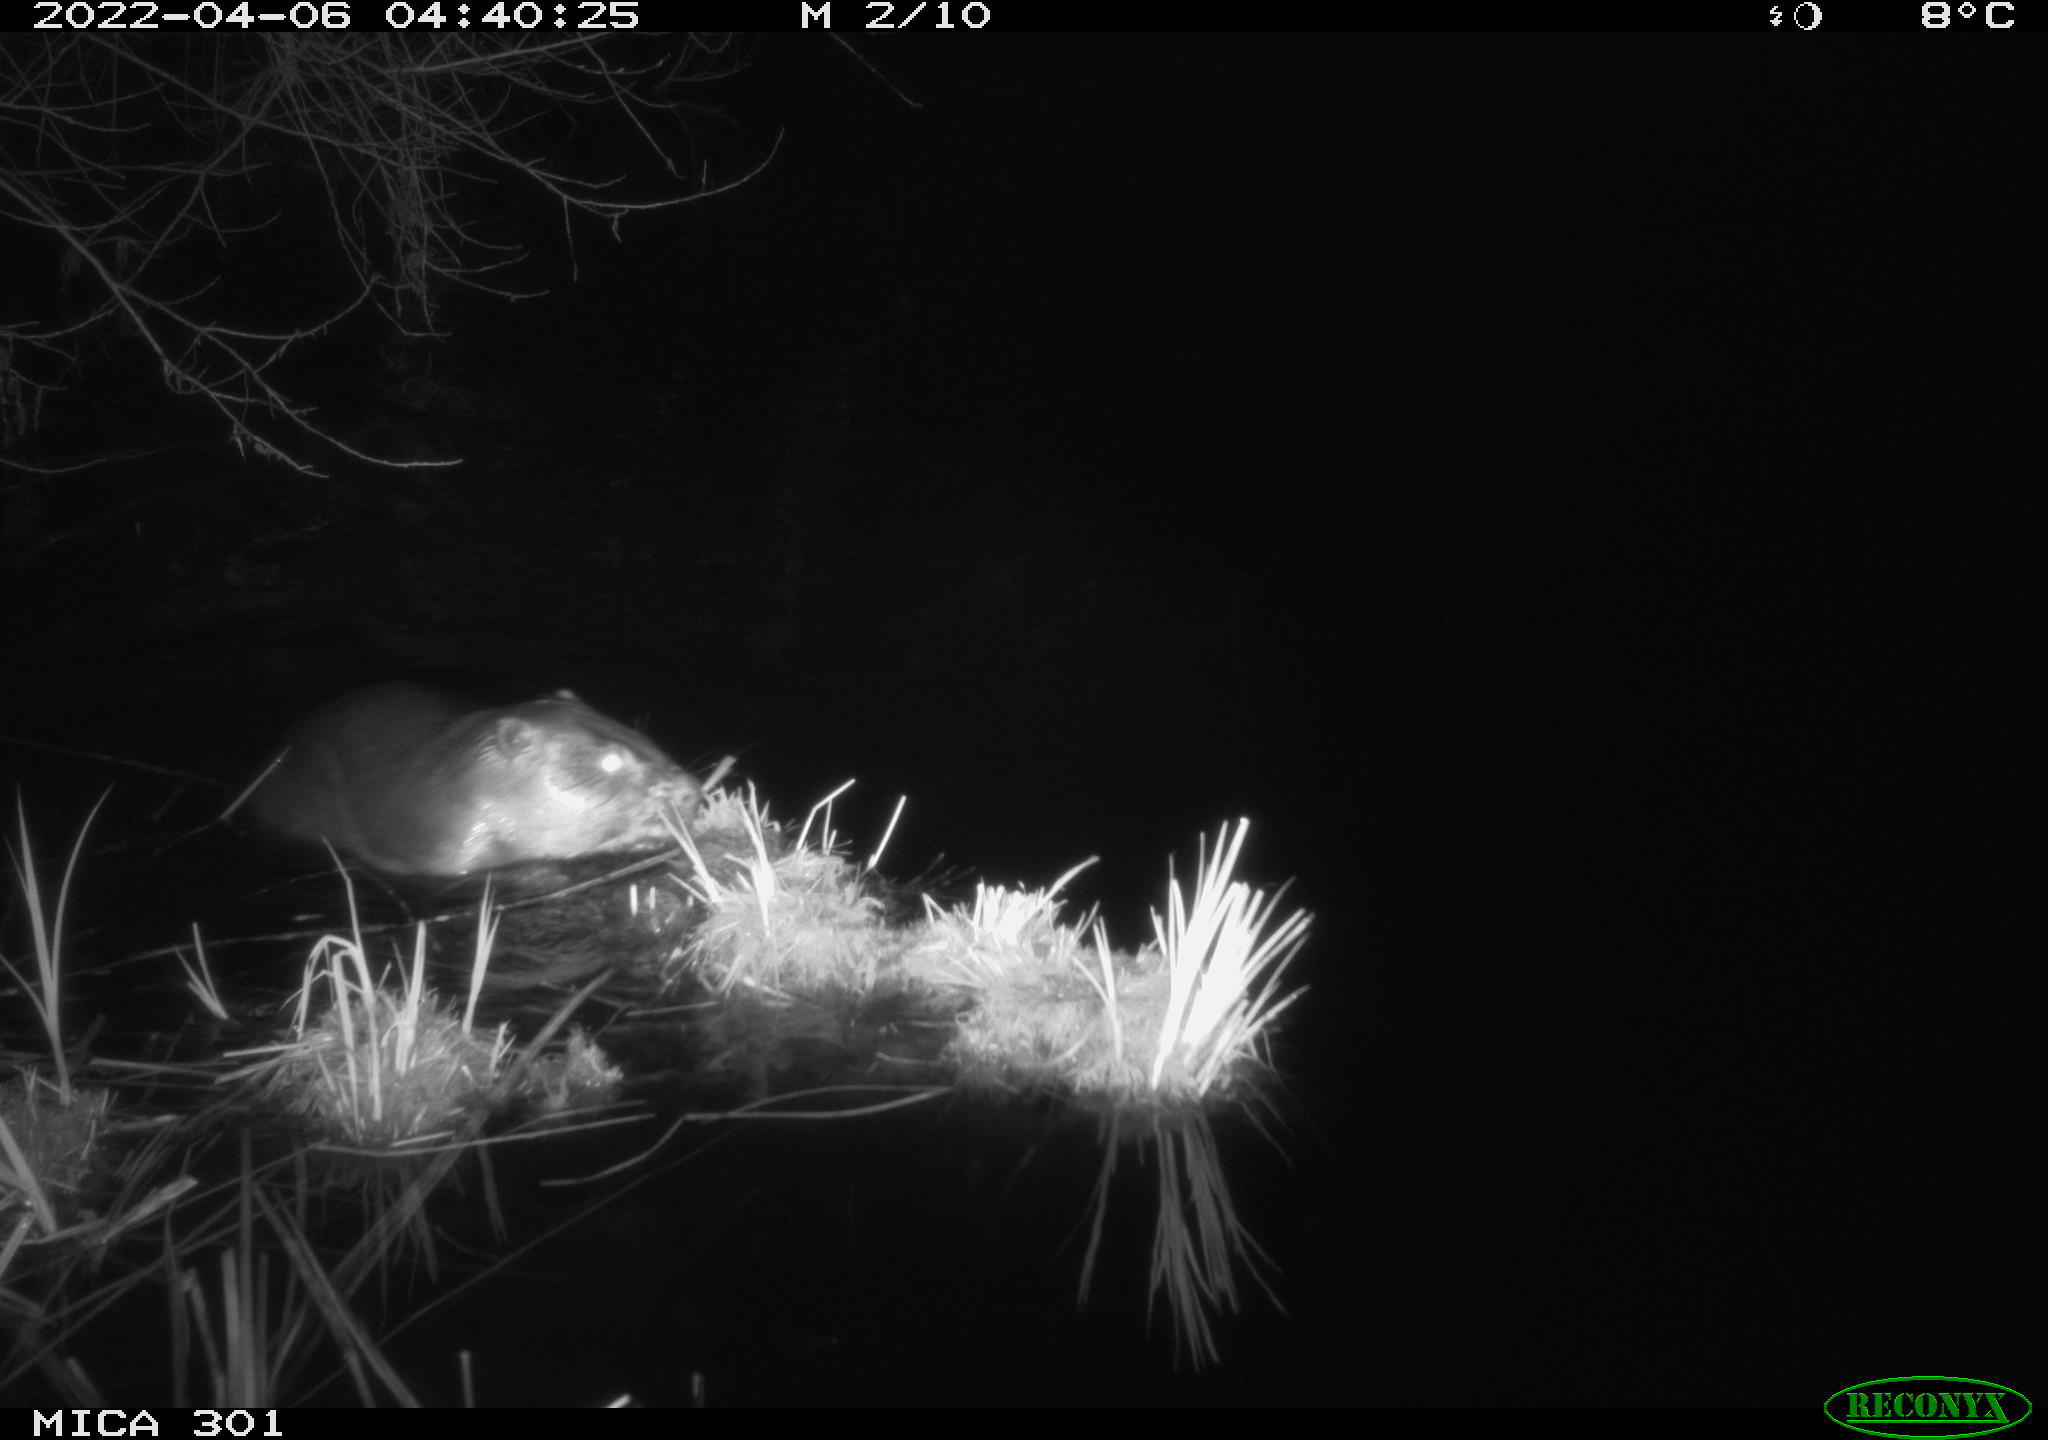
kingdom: Animalia
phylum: Chordata
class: Mammalia
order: Rodentia
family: Castoridae
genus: Castor
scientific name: Castor fiber
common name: Eurasian beaver
